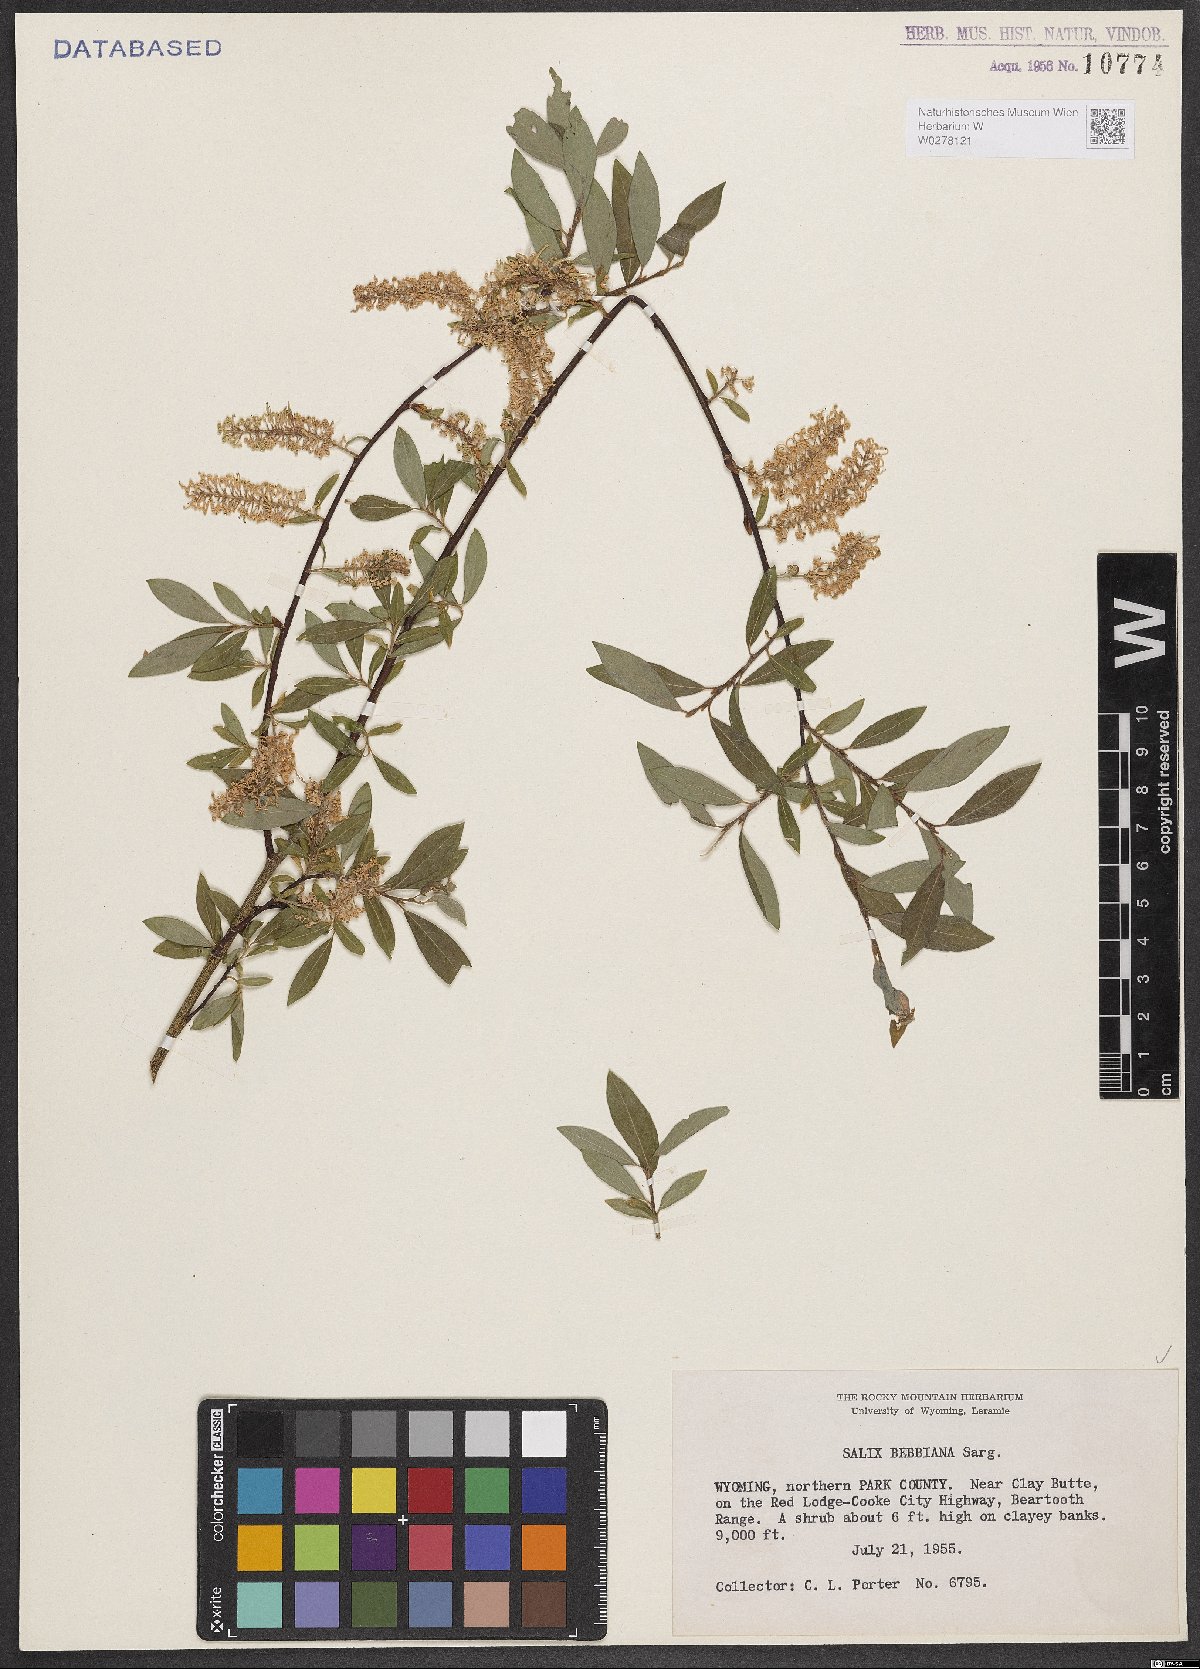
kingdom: Plantae
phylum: Tracheophyta
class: Magnoliopsida
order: Malpighiales
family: Salicaceae
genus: Salix
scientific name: Salix bebbiana
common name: Bebb's willow
